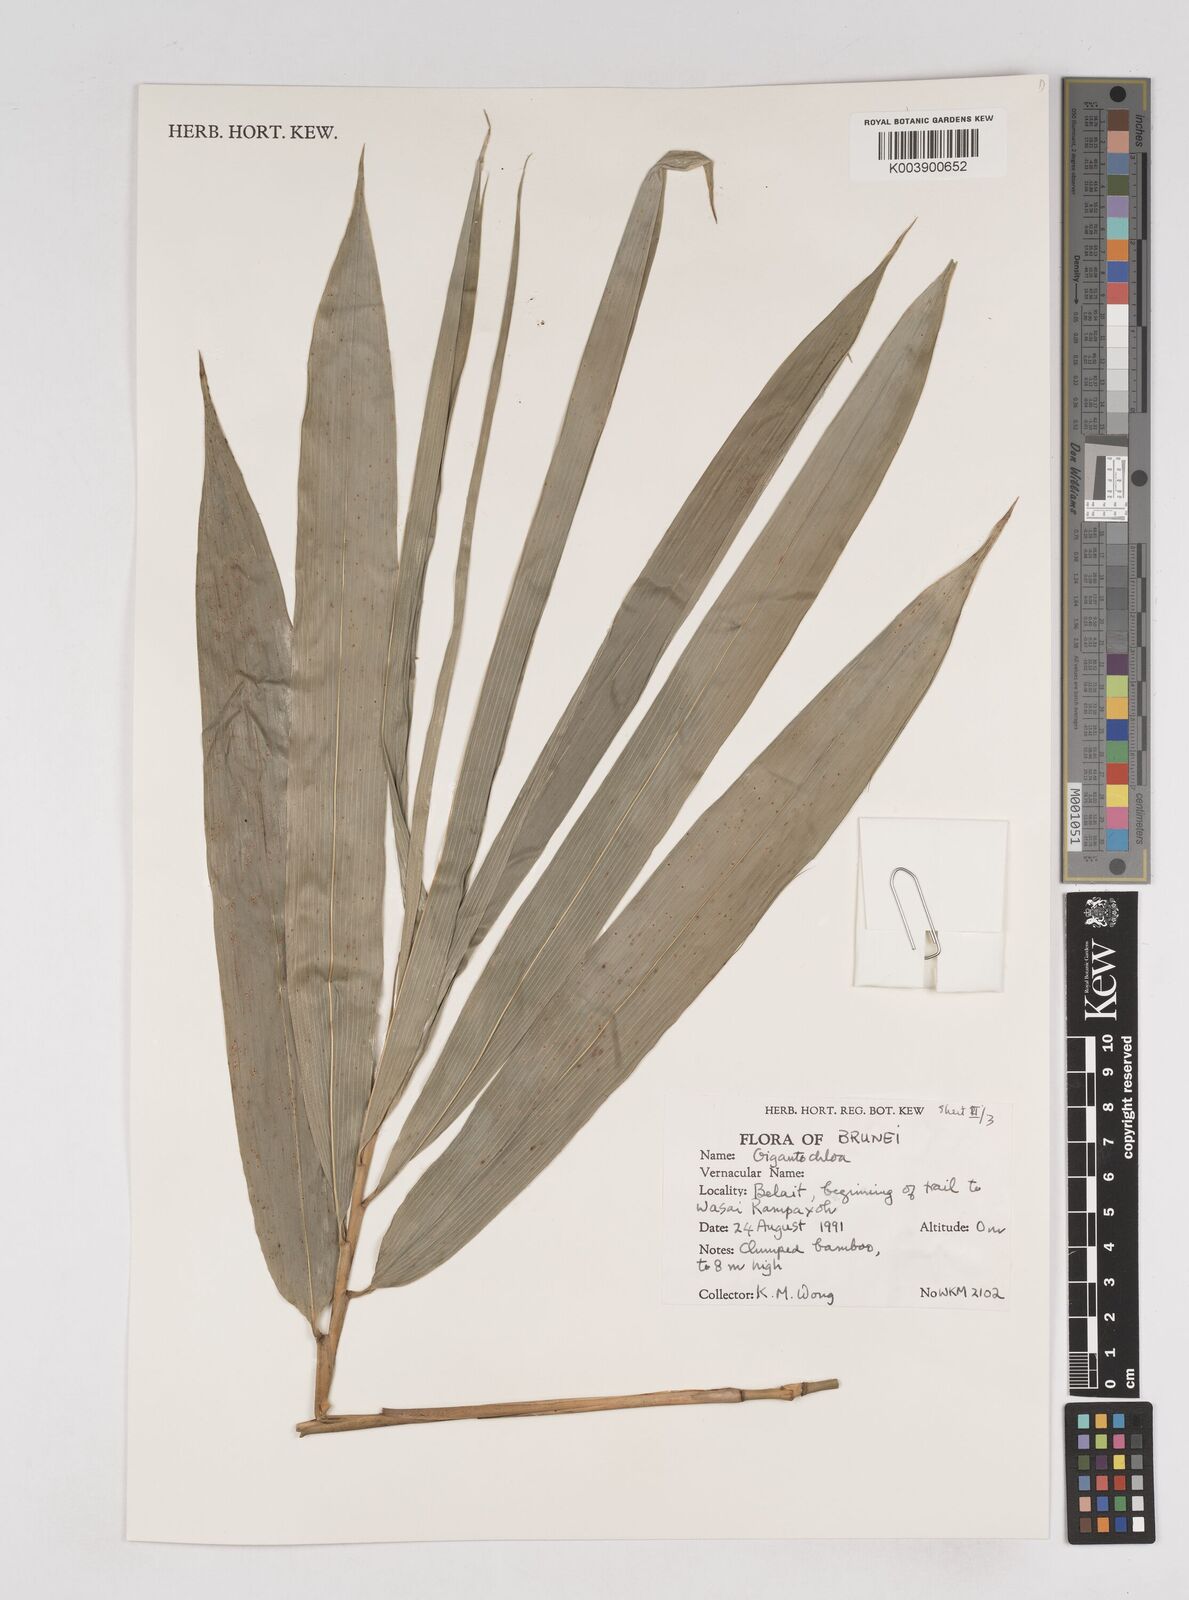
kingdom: Plantae
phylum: Tracheophyta
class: Liliopsida
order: Poales
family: Poaceae
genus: Gigantochloa
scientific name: Gigantochloa
